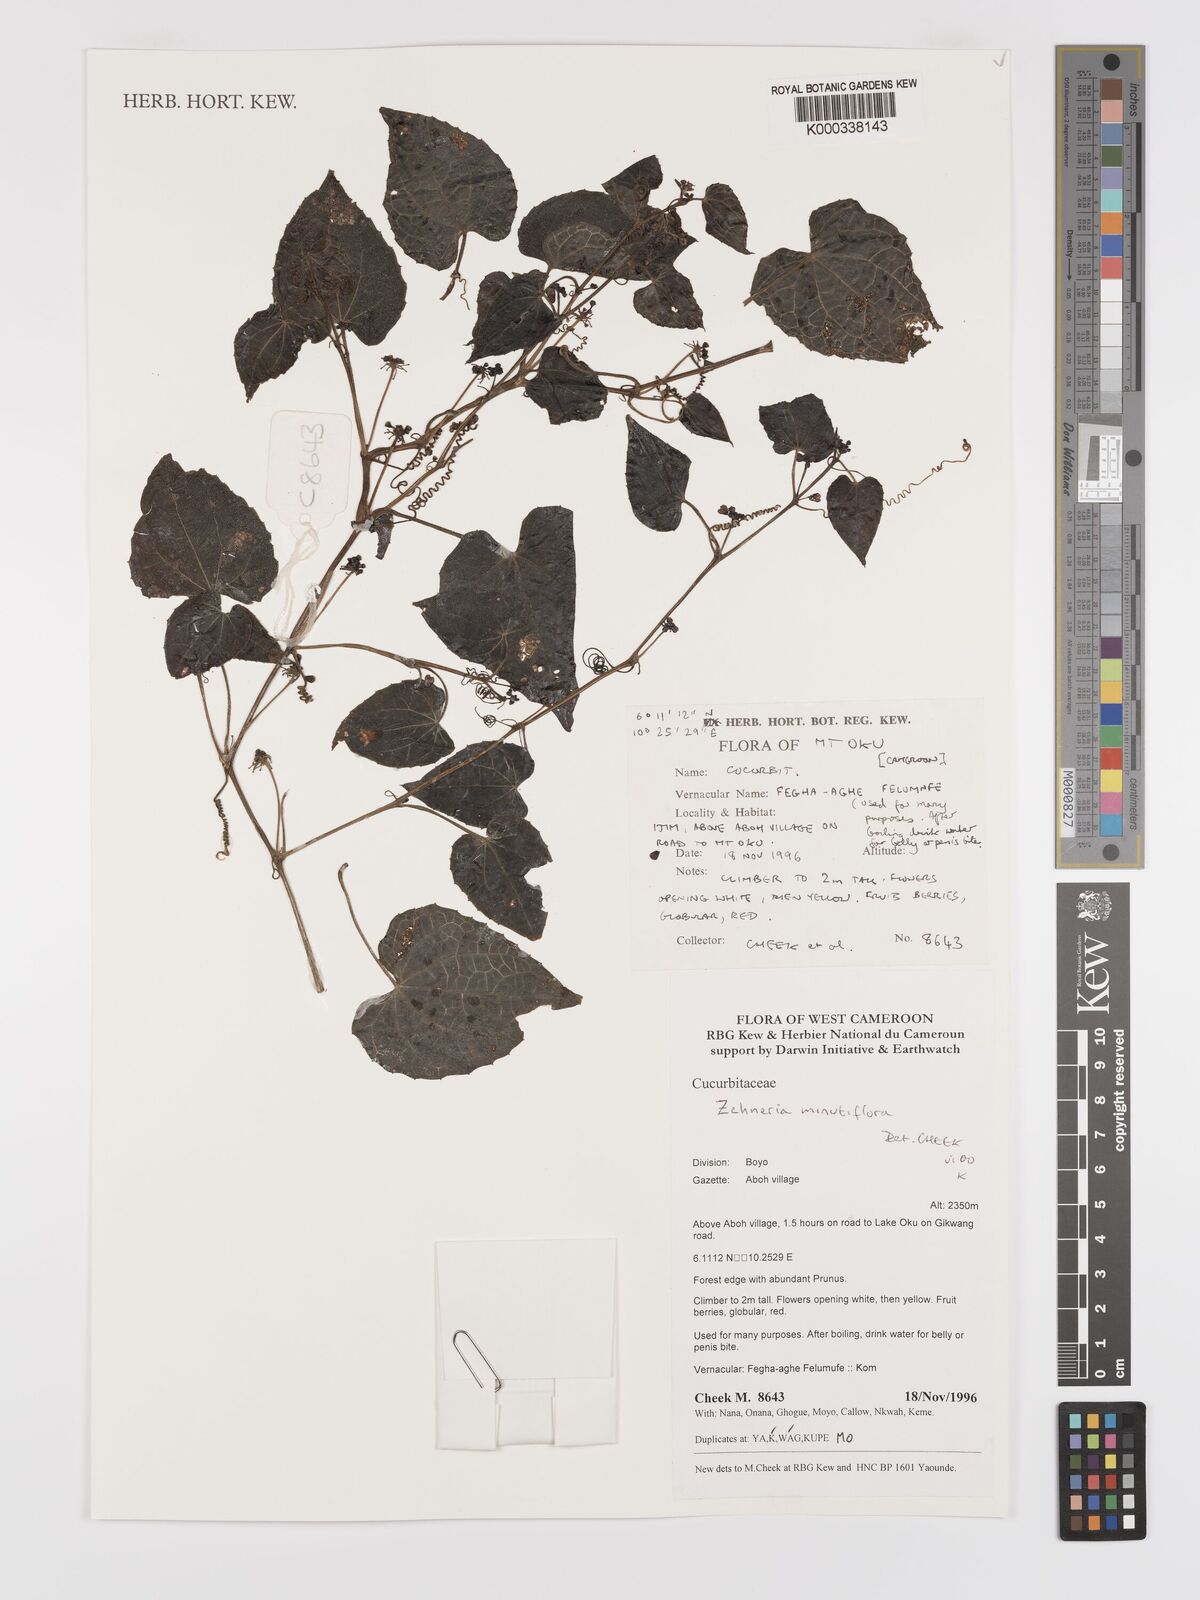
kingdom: Plantae
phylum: Tracheophyta
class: Magnoliopsida
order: Cucurbitales
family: Cucurbitaceae
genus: Zehneria
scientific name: Zehneria minutiflora
